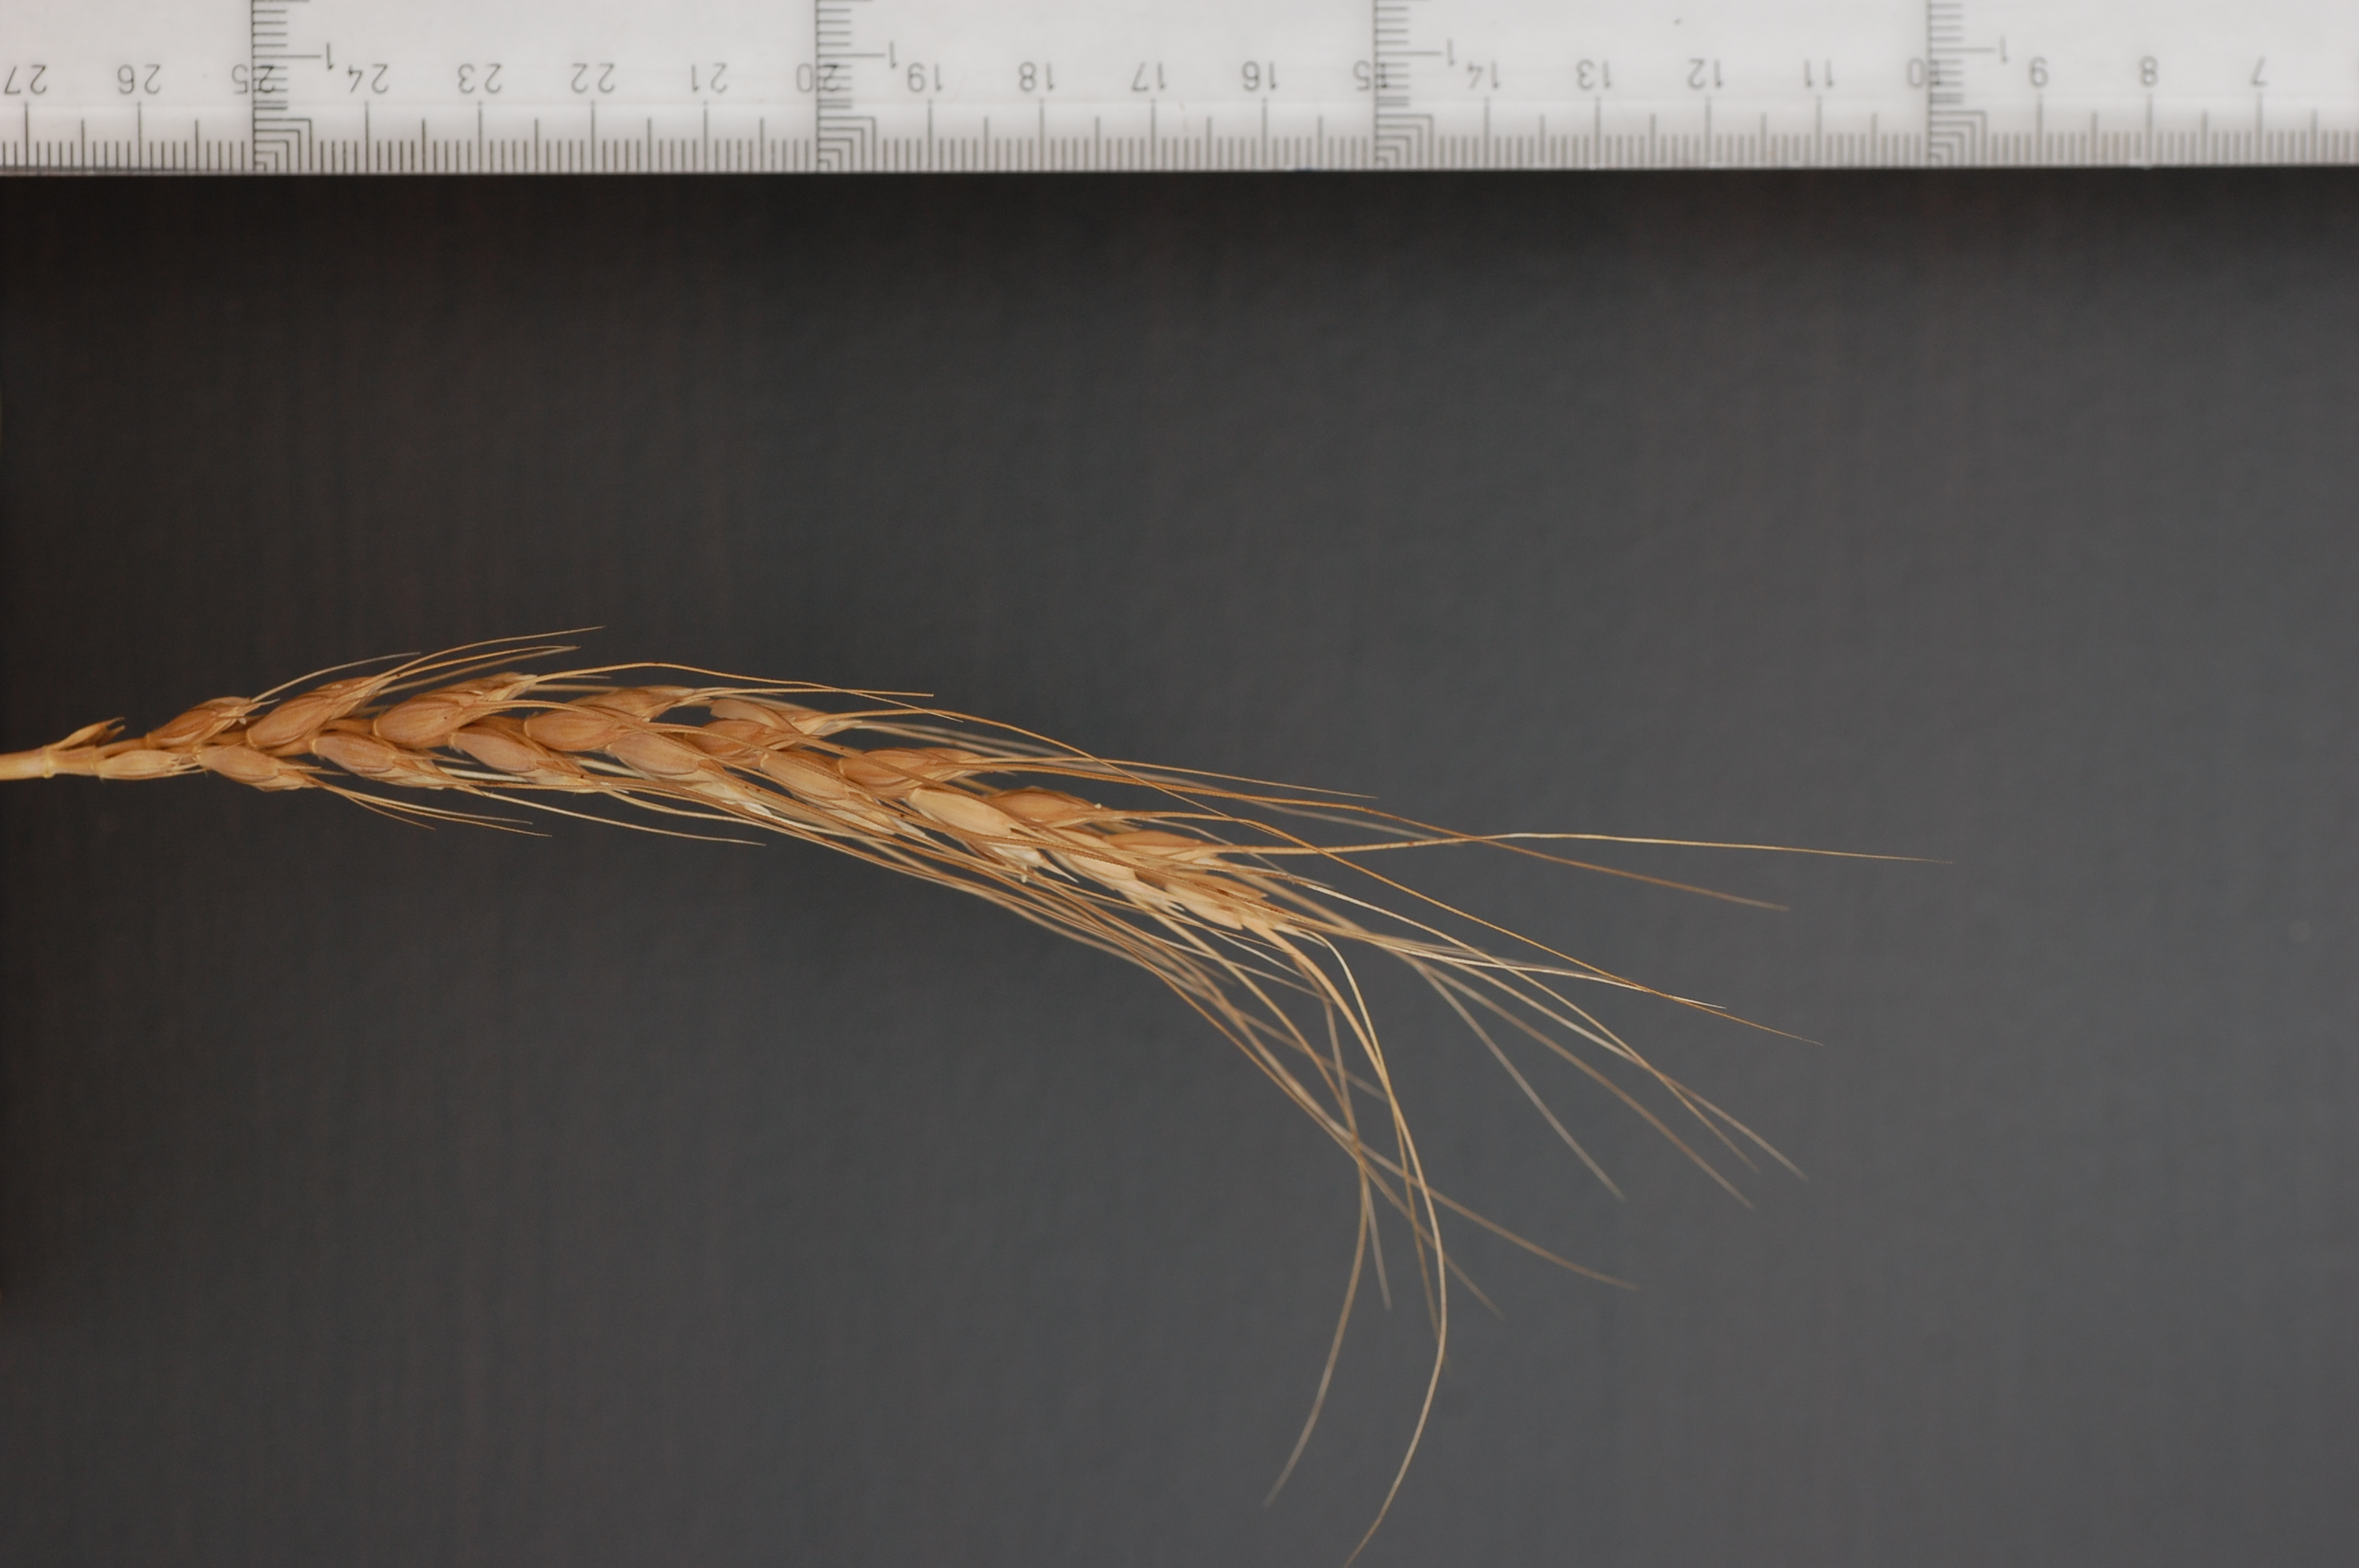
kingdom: Plantae
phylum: Tracheophyta
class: Liliopsida
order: Poales
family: Poaceae
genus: Triticum
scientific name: Triticum aestivum
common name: Common wheat
